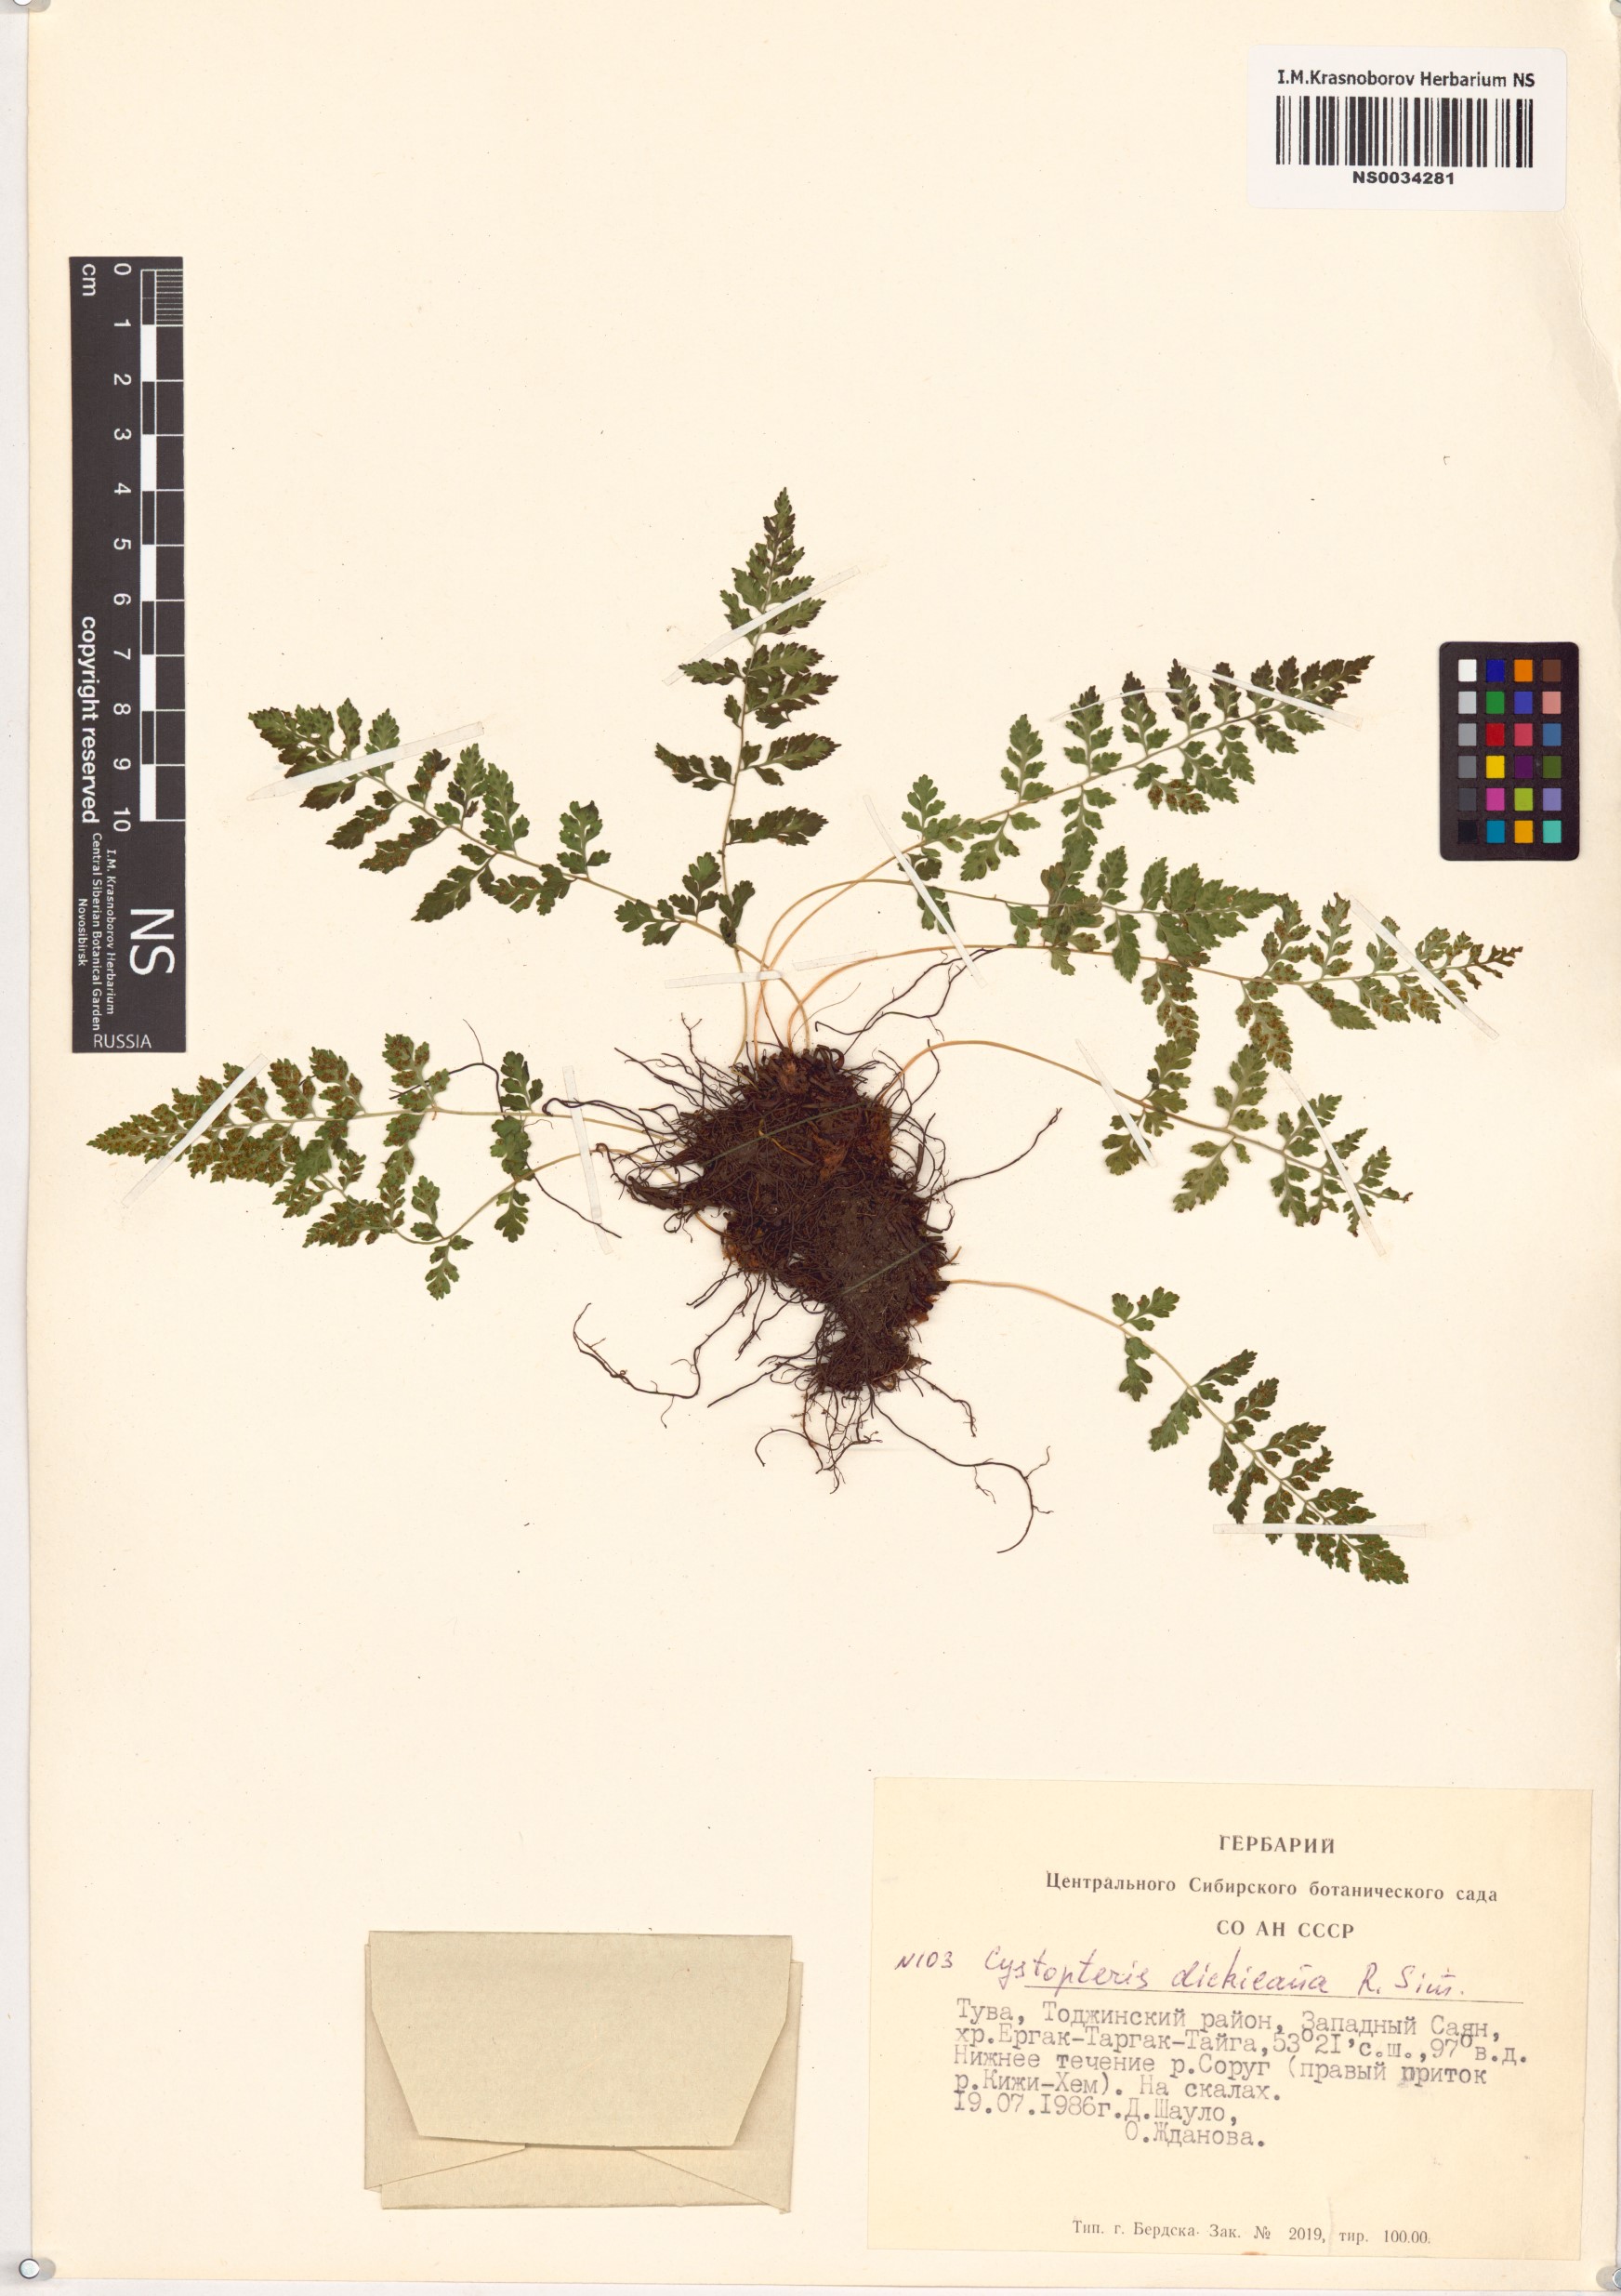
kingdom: Plantae
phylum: Tracheophyta
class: Polypodiopsida
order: Polypodiales
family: Cystopteridaceae
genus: Cystopteris
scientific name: Cystopteris dickieana
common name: Dickie's bladder-fern
